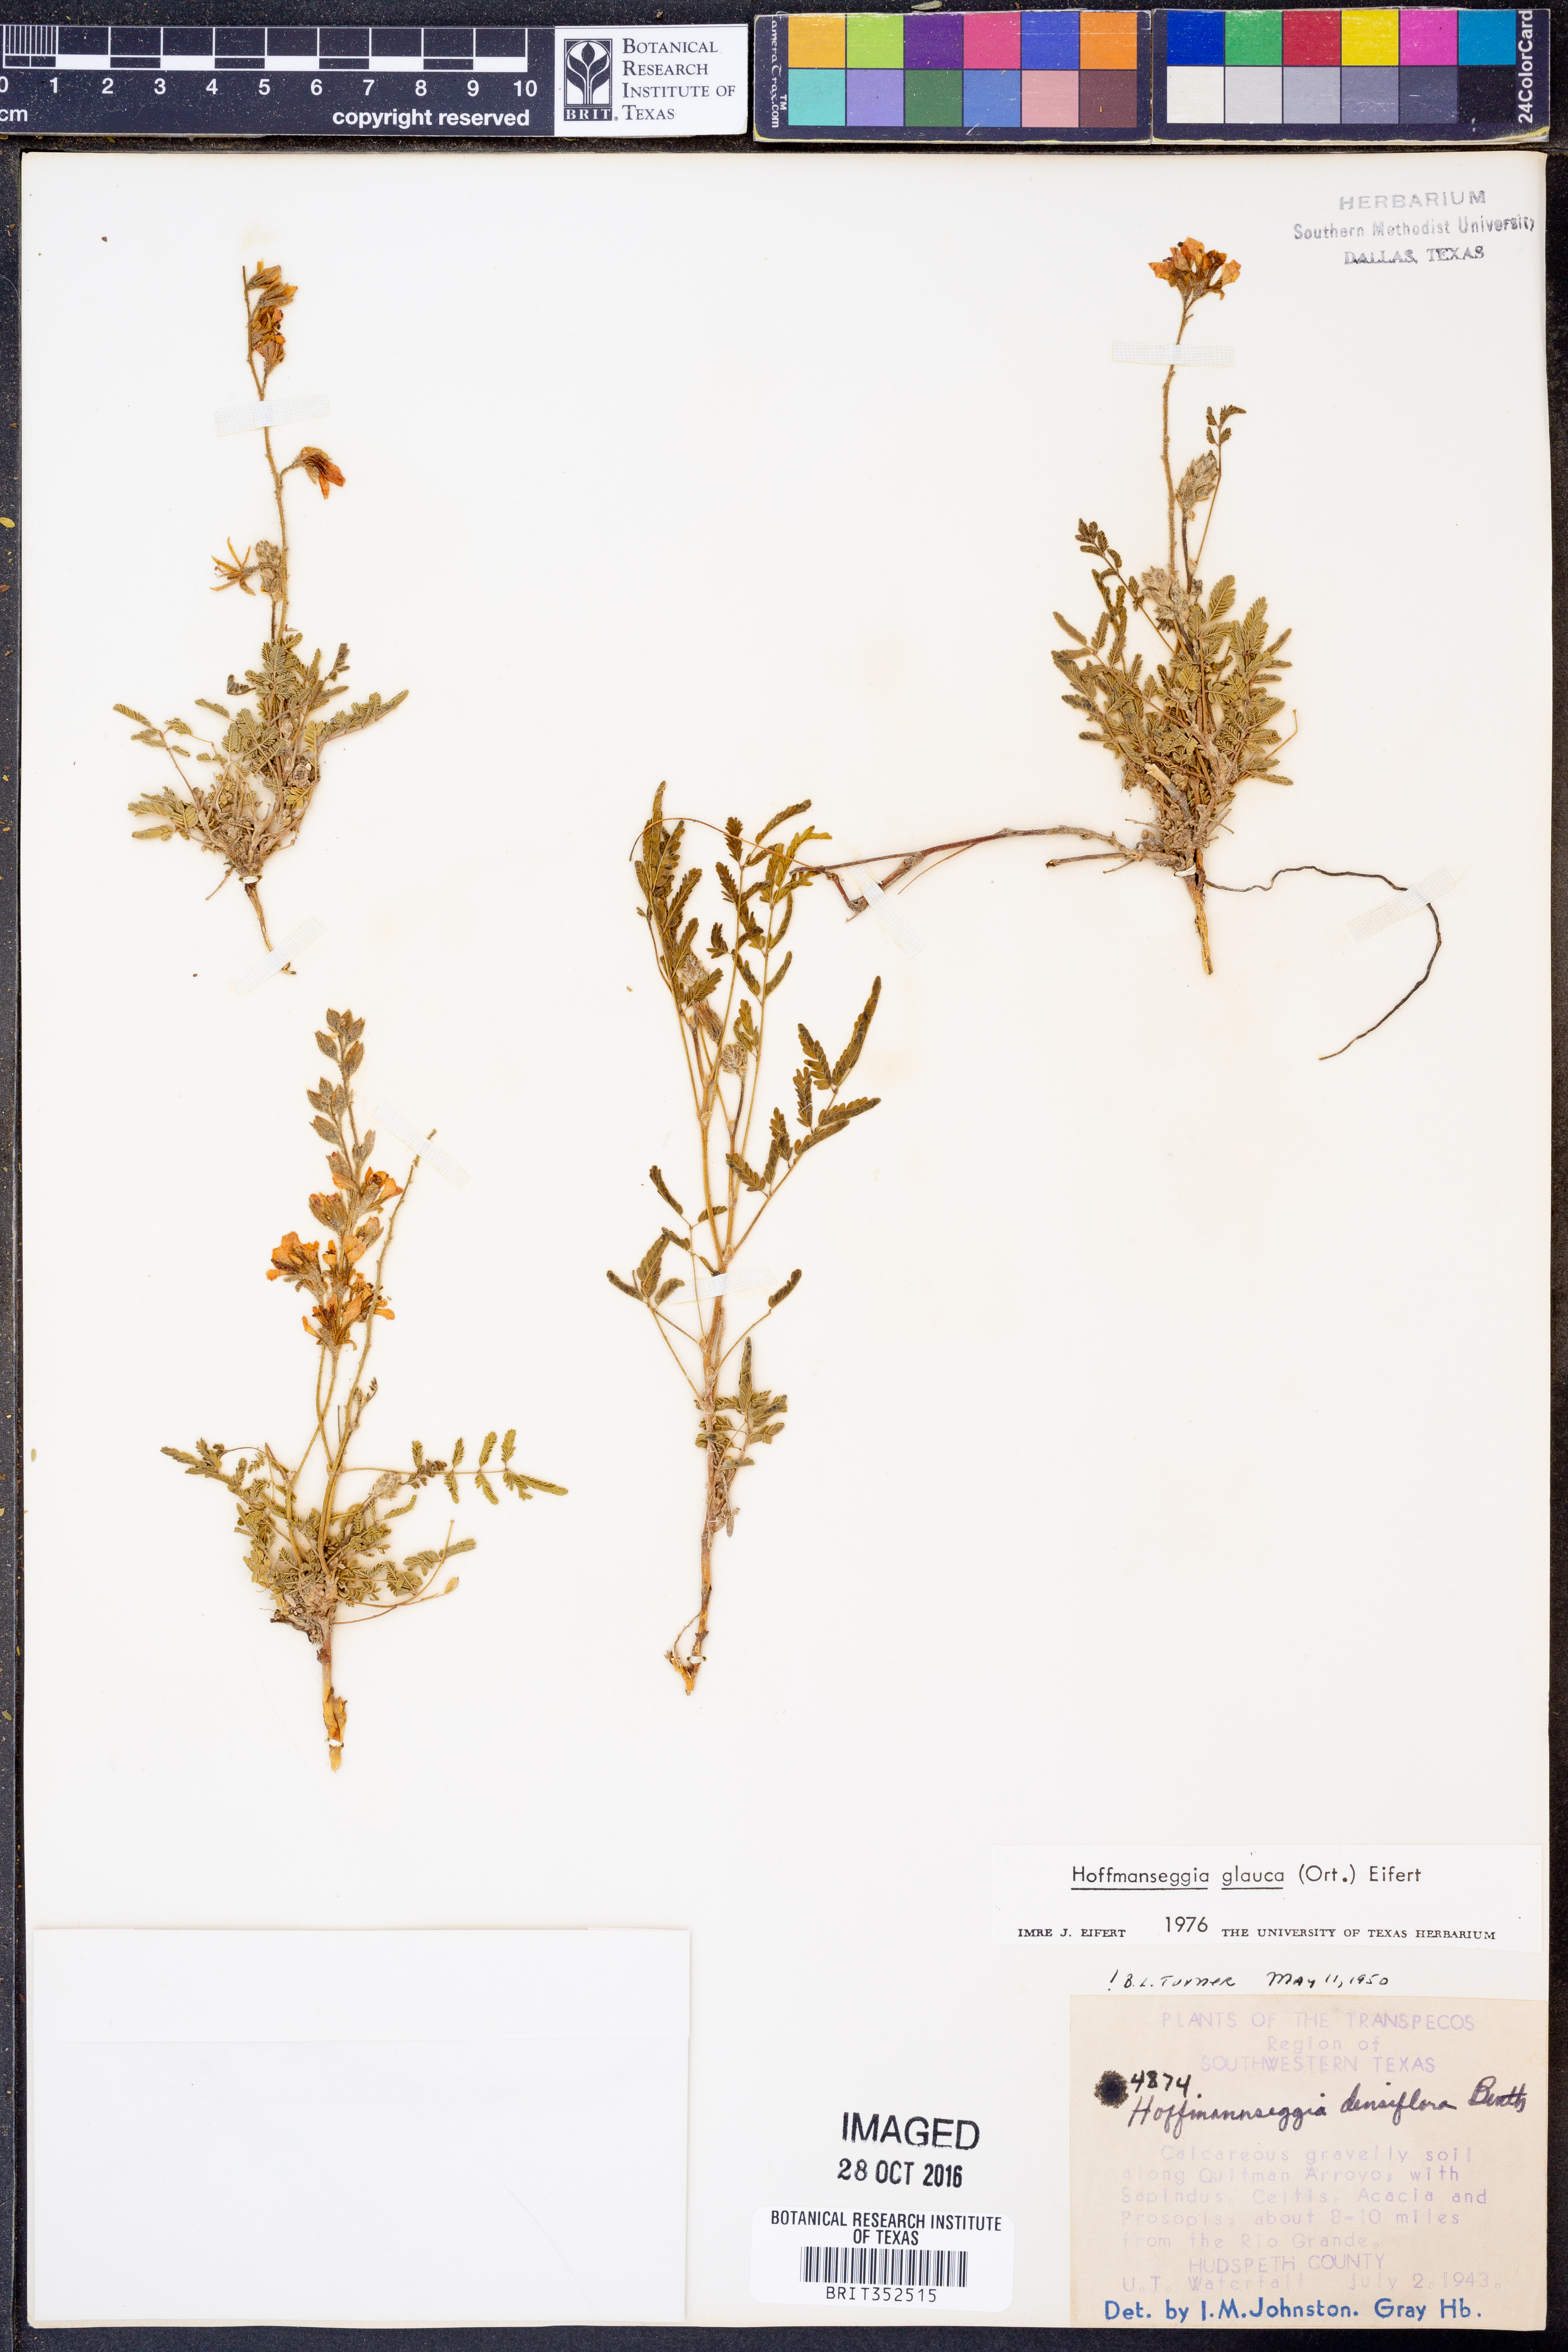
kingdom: Plantae
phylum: Tracheophyta
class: Magnoliopsida
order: Fabales
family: Fabaceae
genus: Hoffmannseggia
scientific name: Hoffmannseggia glauca
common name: Pignut
